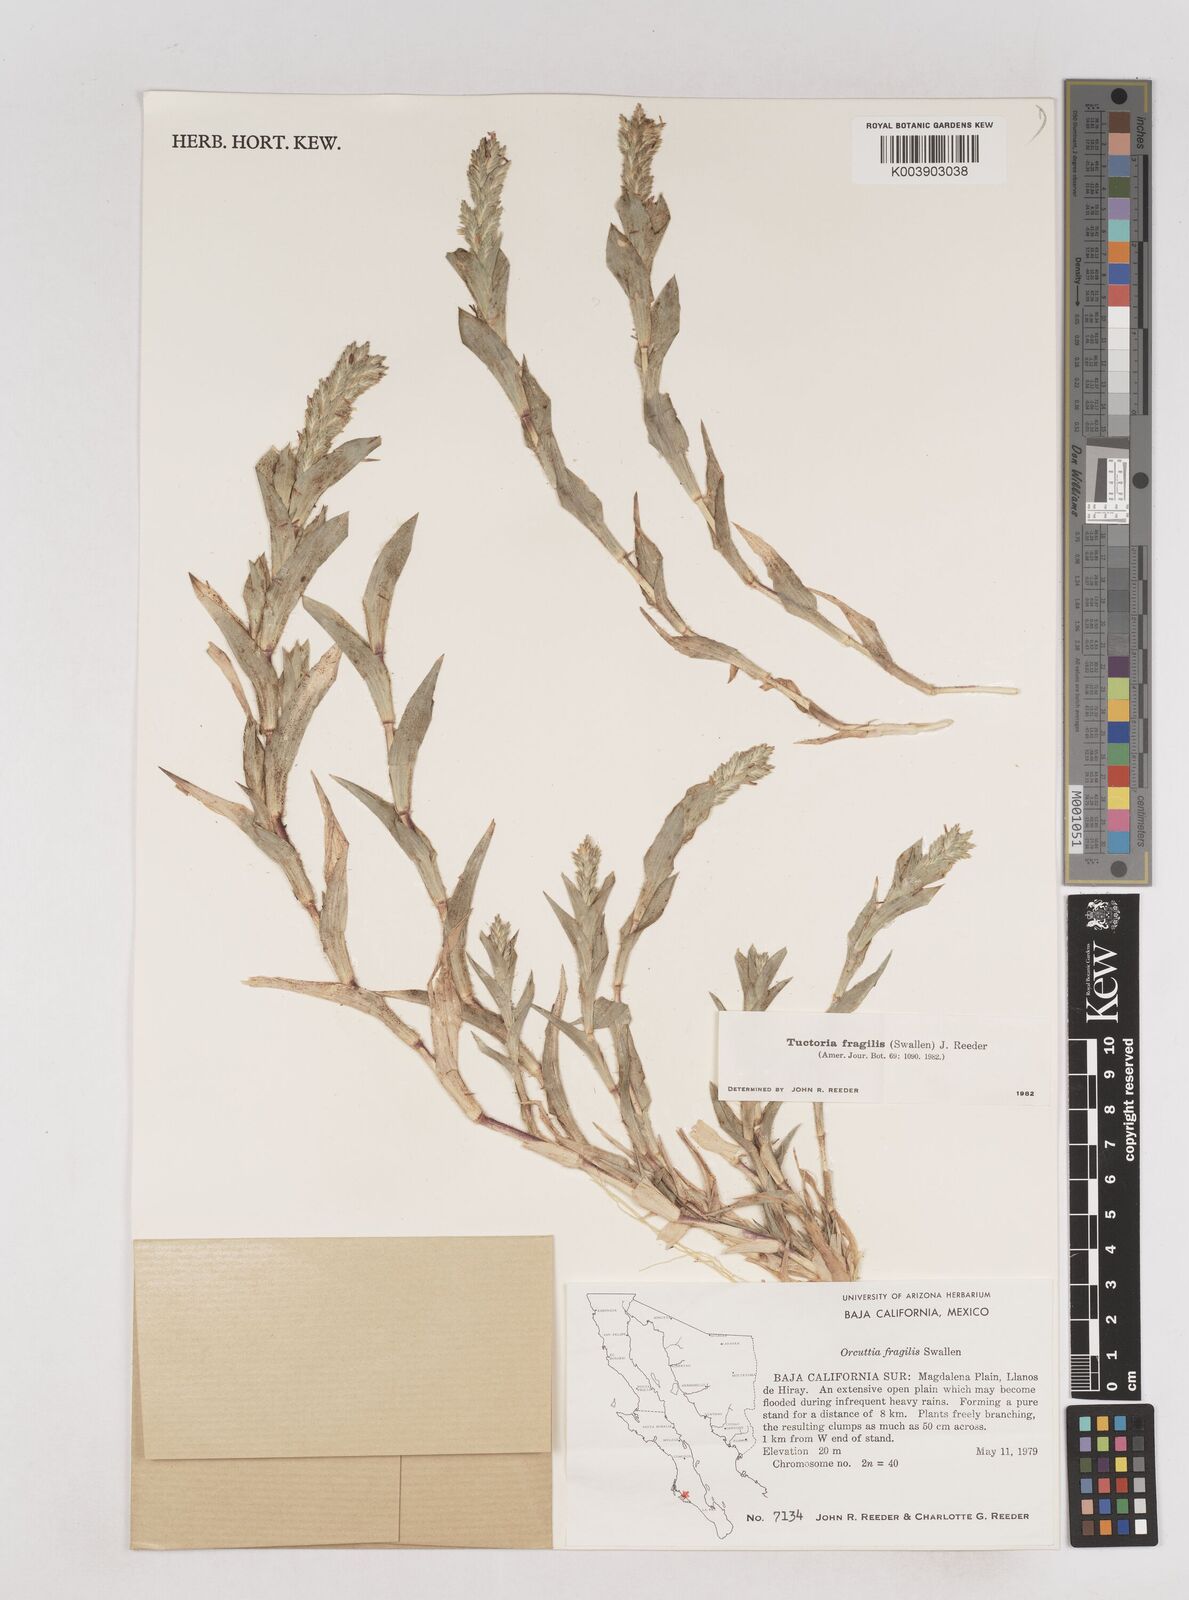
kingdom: Plantae
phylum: Tracheophyta
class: Liliopsida
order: Poales
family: Poaceae
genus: Tuctoria
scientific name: Tuctoria fragilis
